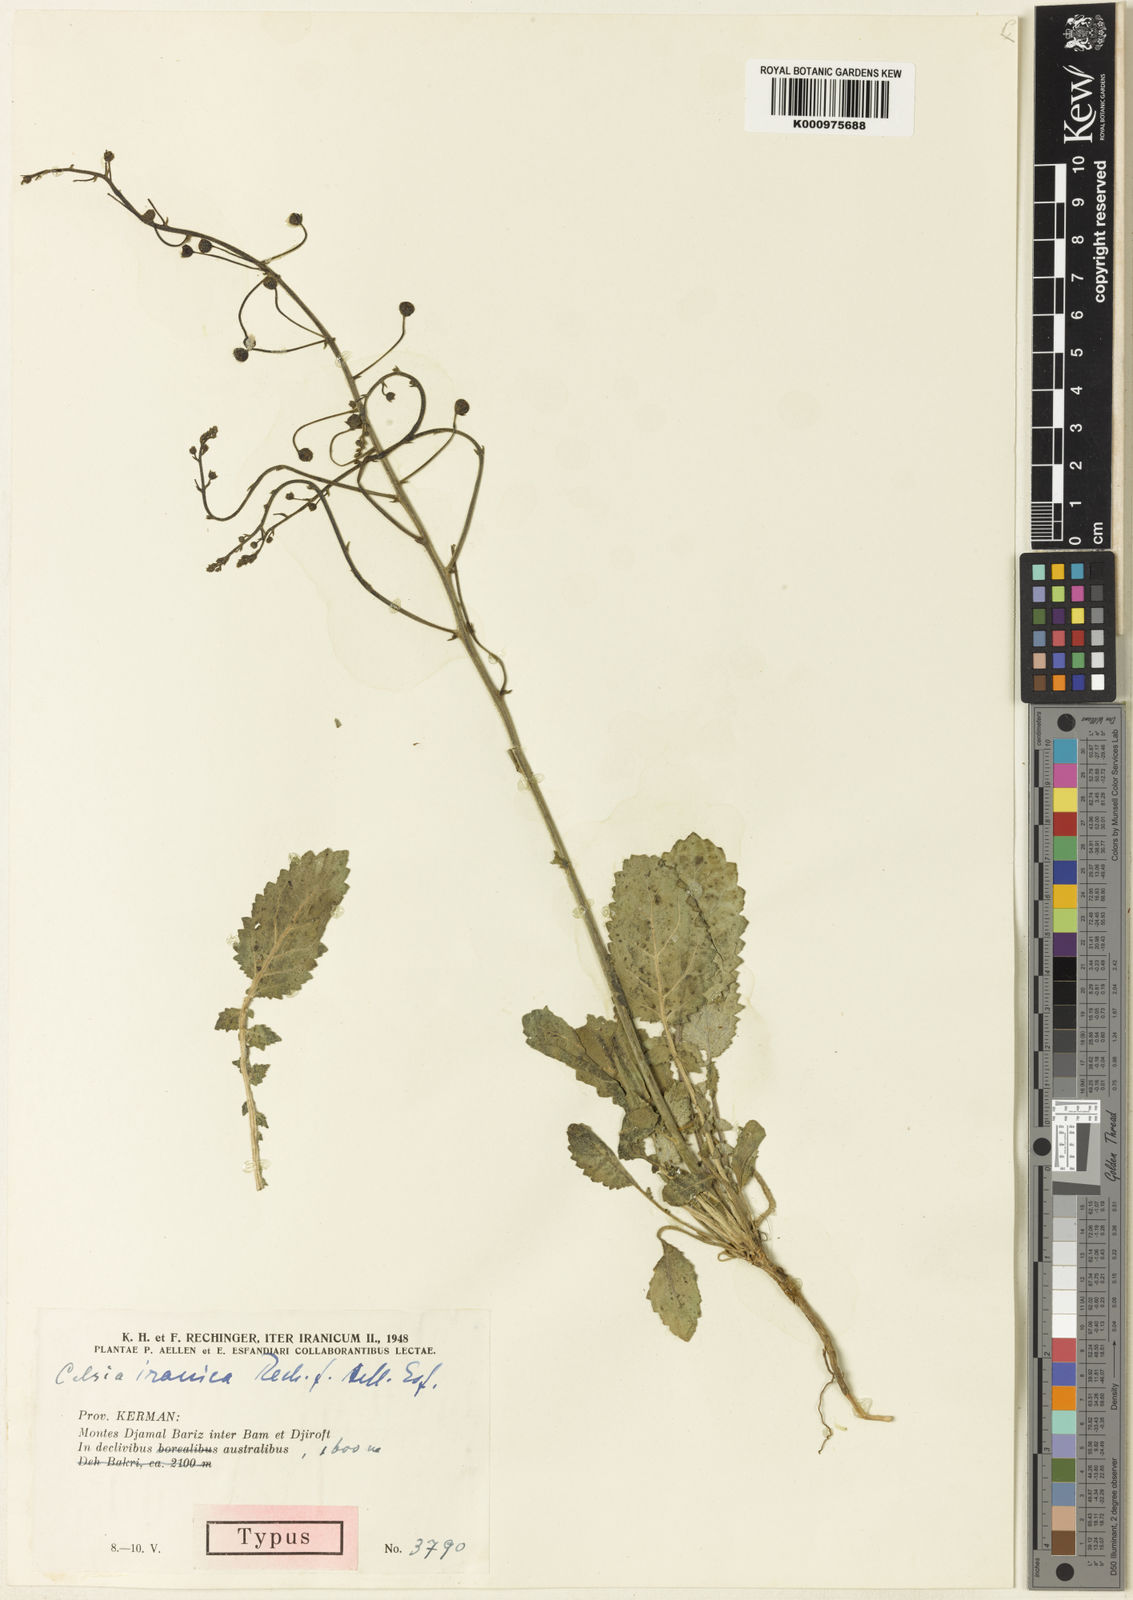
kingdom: Plantae
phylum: Tracheophyta
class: Magnoliopsida
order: Lamiales
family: Scrophulariaceae
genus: Verbascum
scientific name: Verbascum farsistanicum
